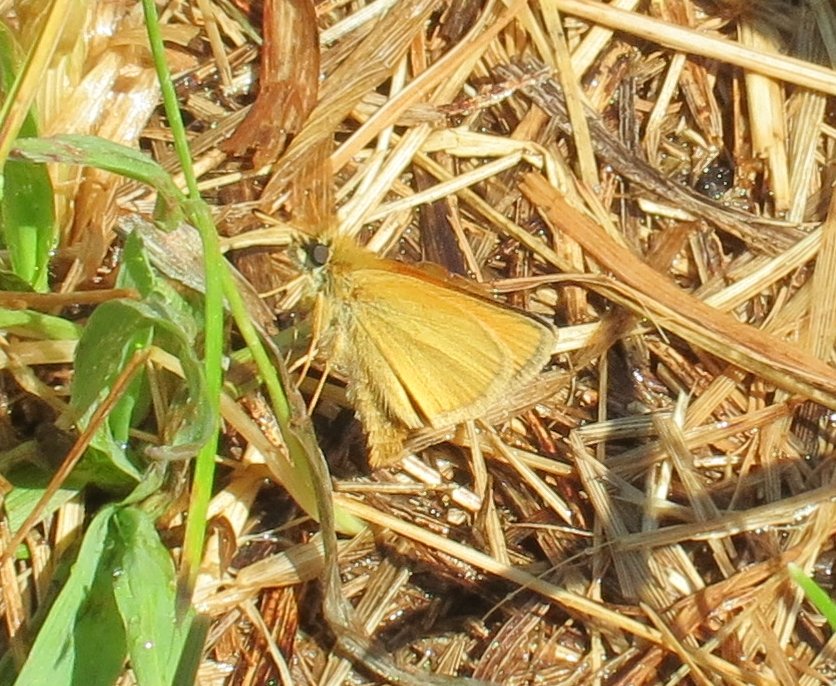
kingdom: Animalia
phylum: Arthropoda
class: Insecta
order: Lepidoptera
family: Hesperiidae
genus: Thymelicus
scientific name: Thymelicus lineola
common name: European Skipper
